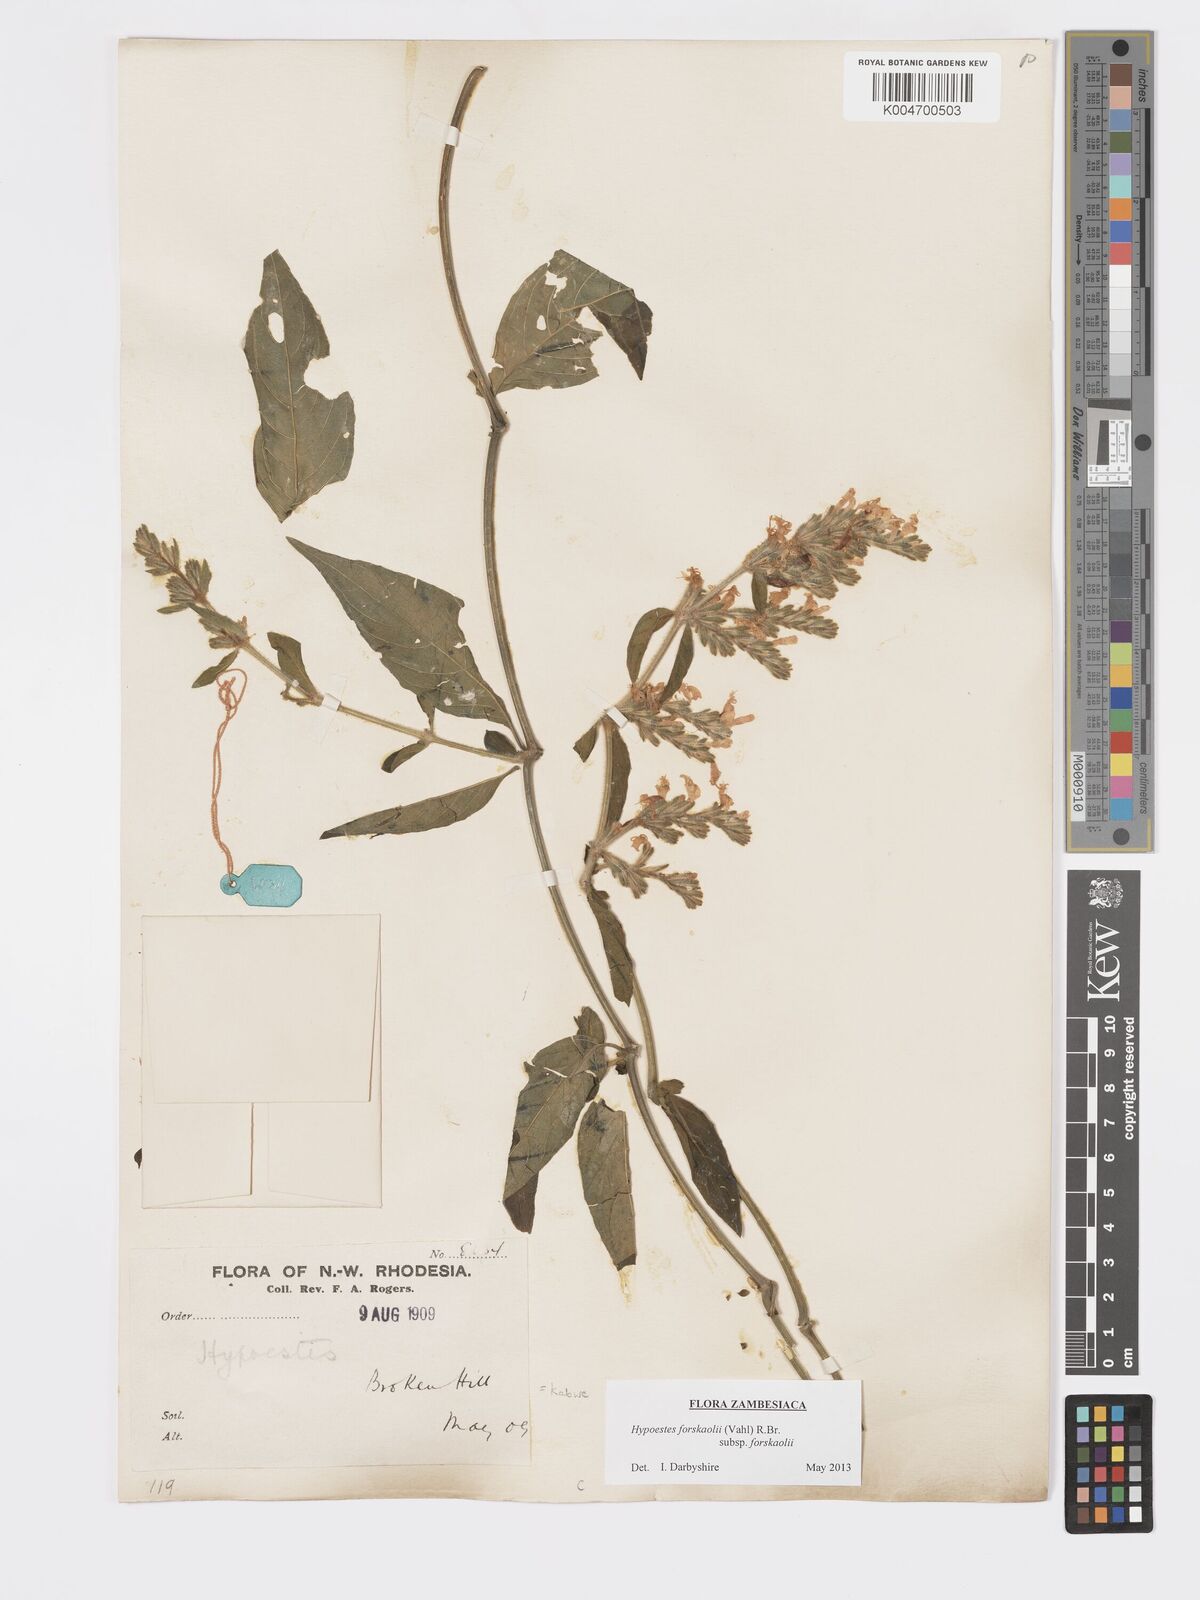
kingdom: Plantae
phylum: Tracheophyta
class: Magnoliopsida
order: Lamiales
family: Acanthaceae
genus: Hypoestes
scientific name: Hypoestes forskaolii
